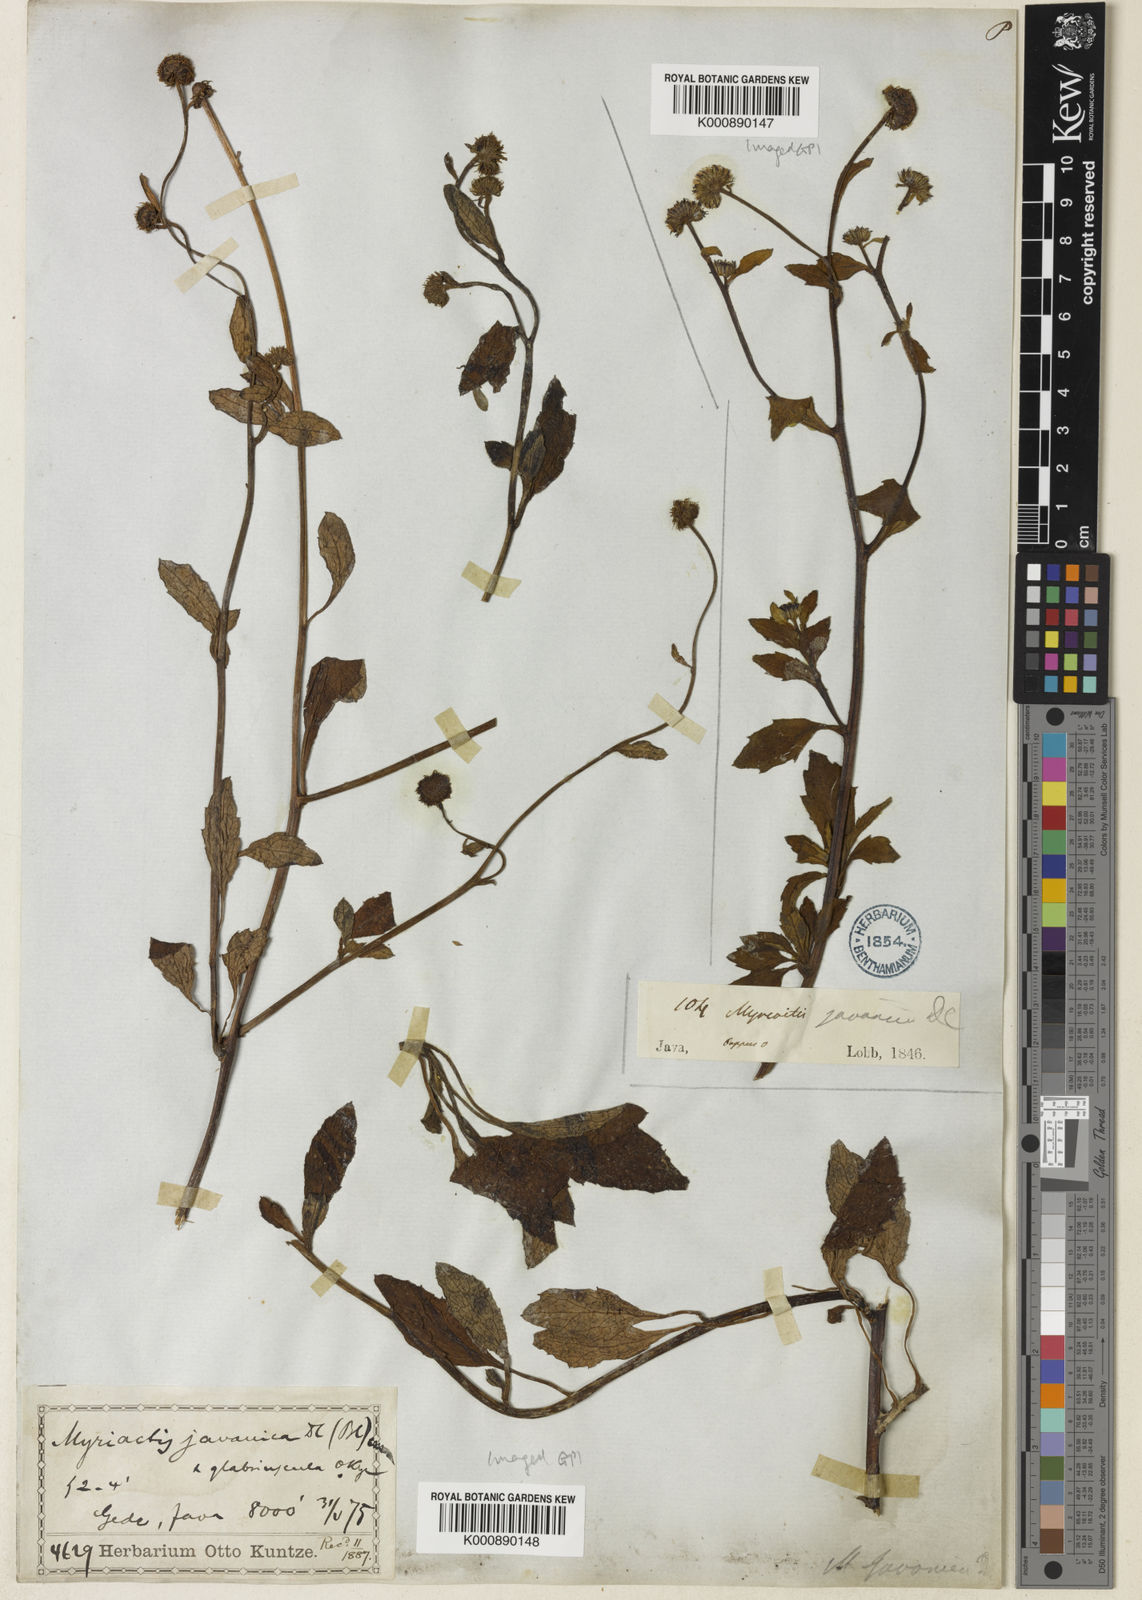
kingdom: Plantae
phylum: Tracheophyta
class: Magnoliopsida
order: Asterales
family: Asteraceae
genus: Myriactis
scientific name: Myriactis javanica
